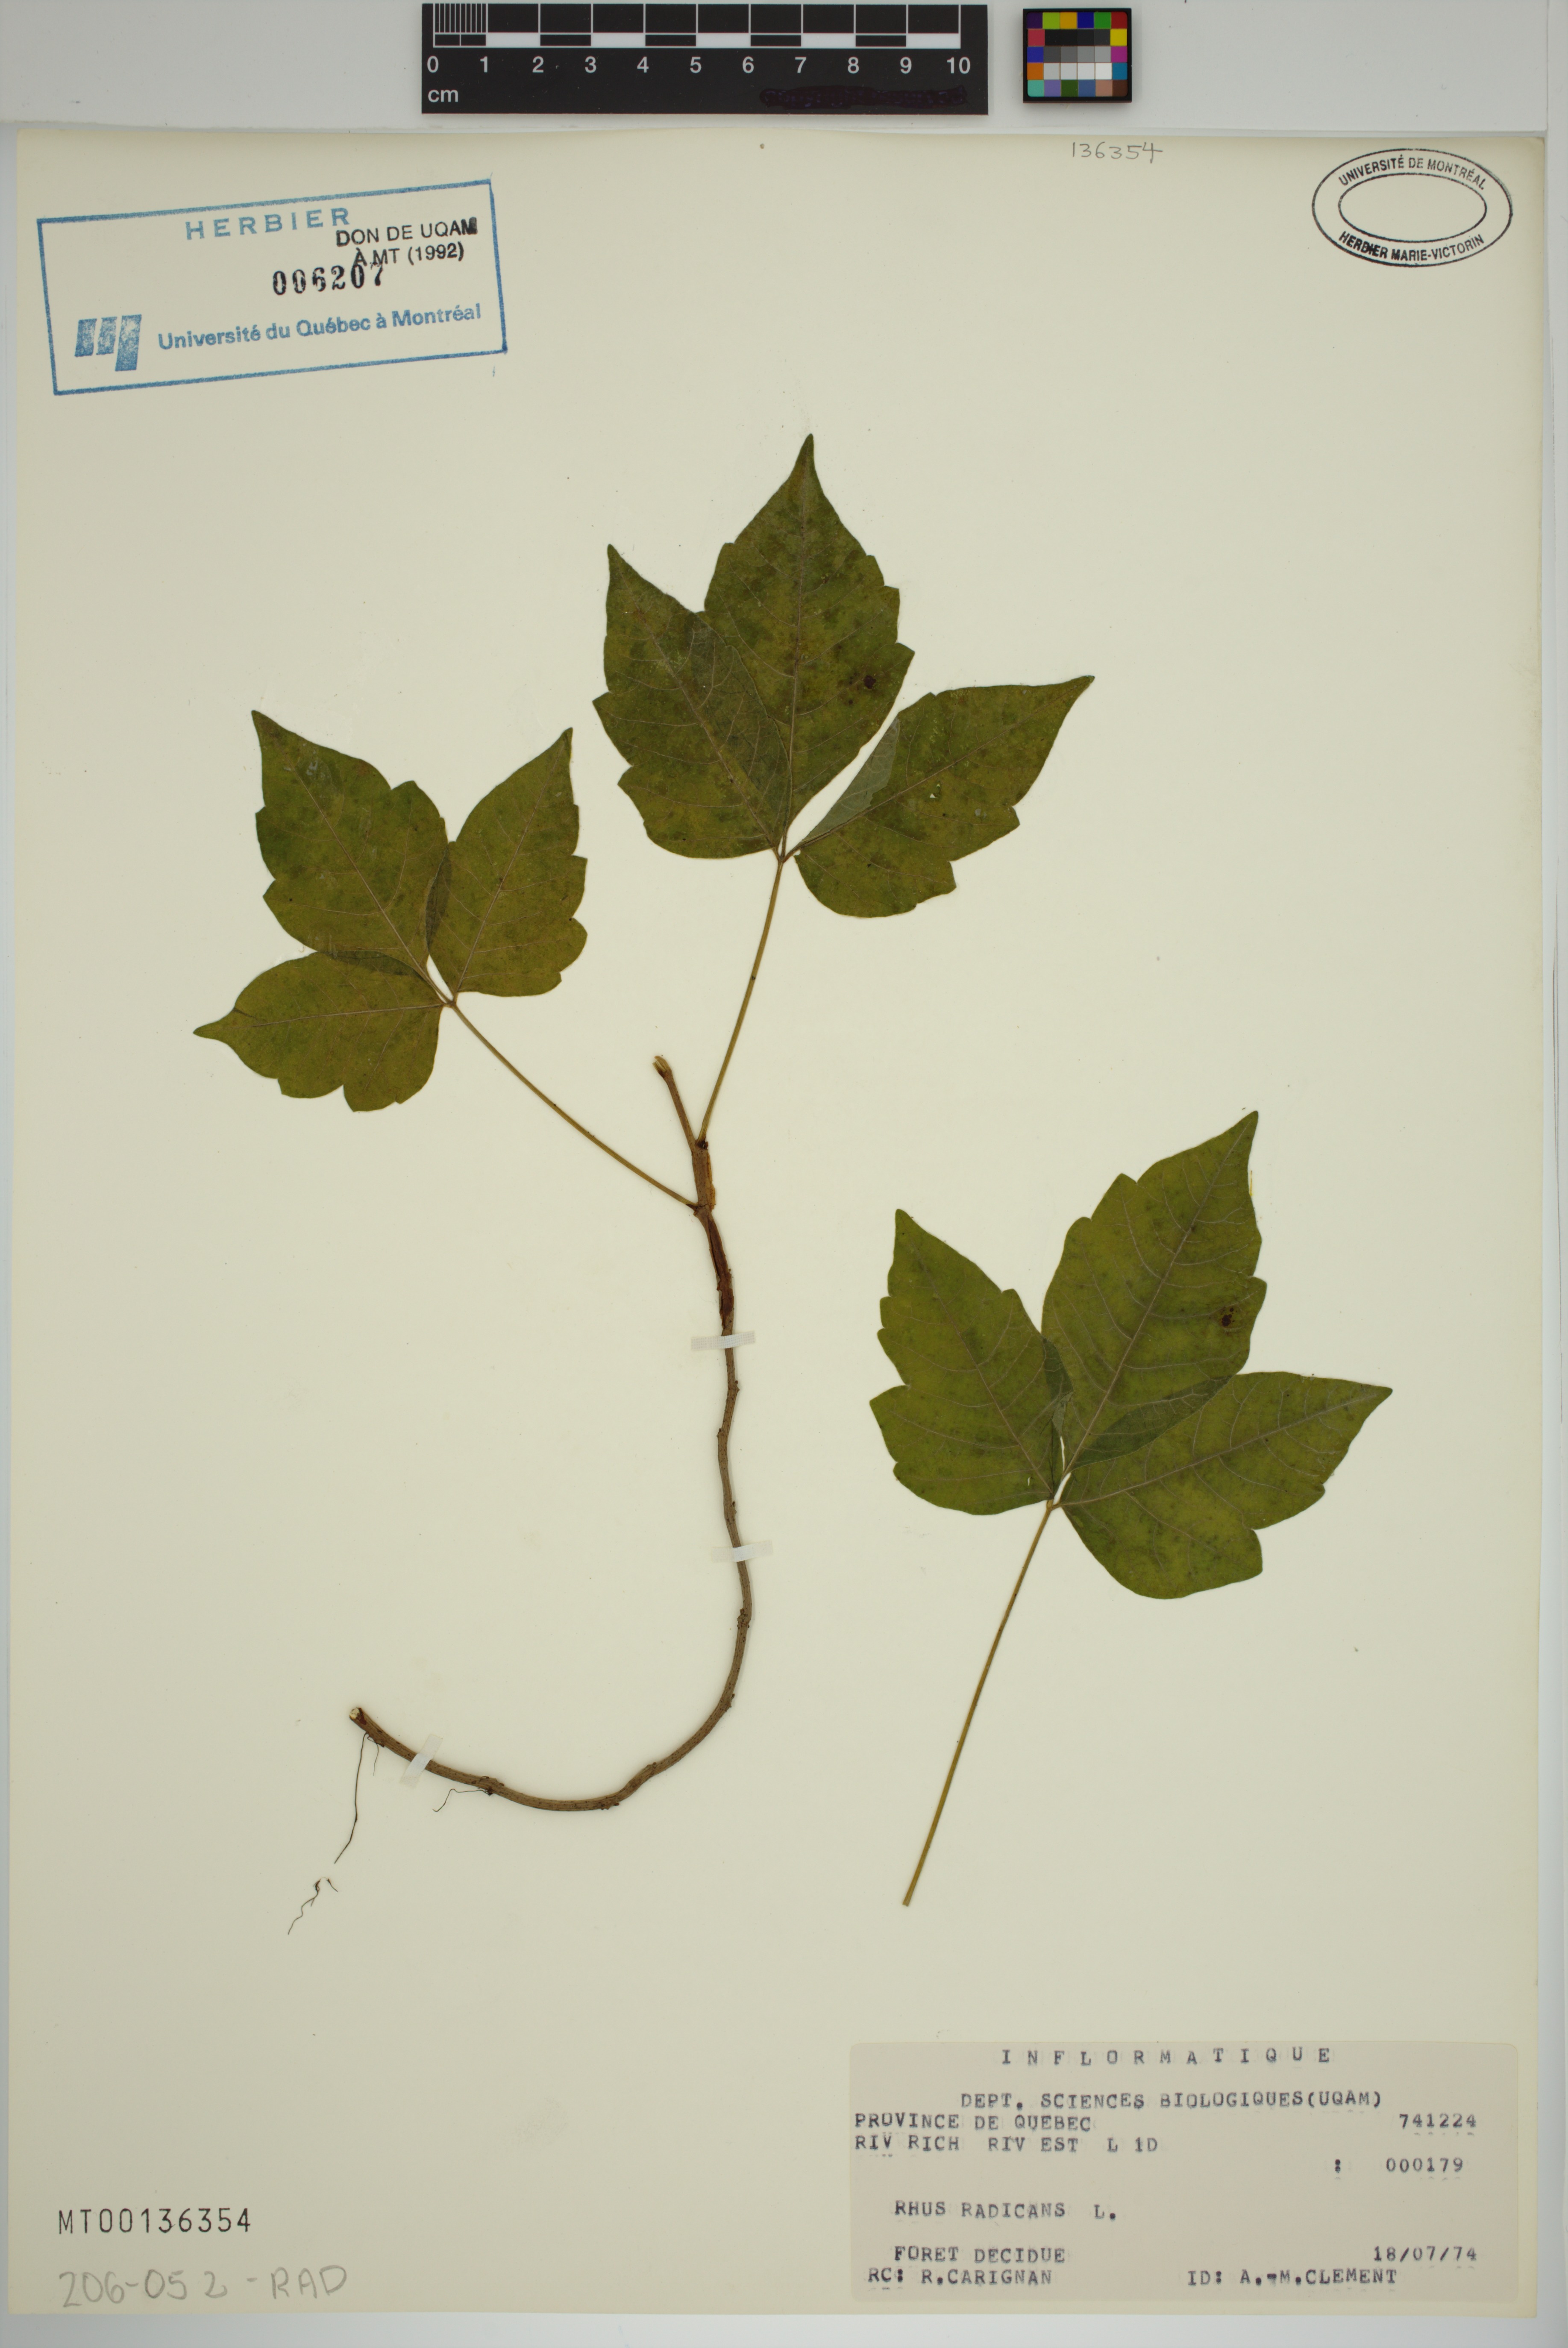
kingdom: Plantae
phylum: Tracheophyta
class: Magnoliopsida
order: Sapindales
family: Anacardiaceae
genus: Toxicodendron
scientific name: Toxicodendron radicans
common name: Poison ivy
